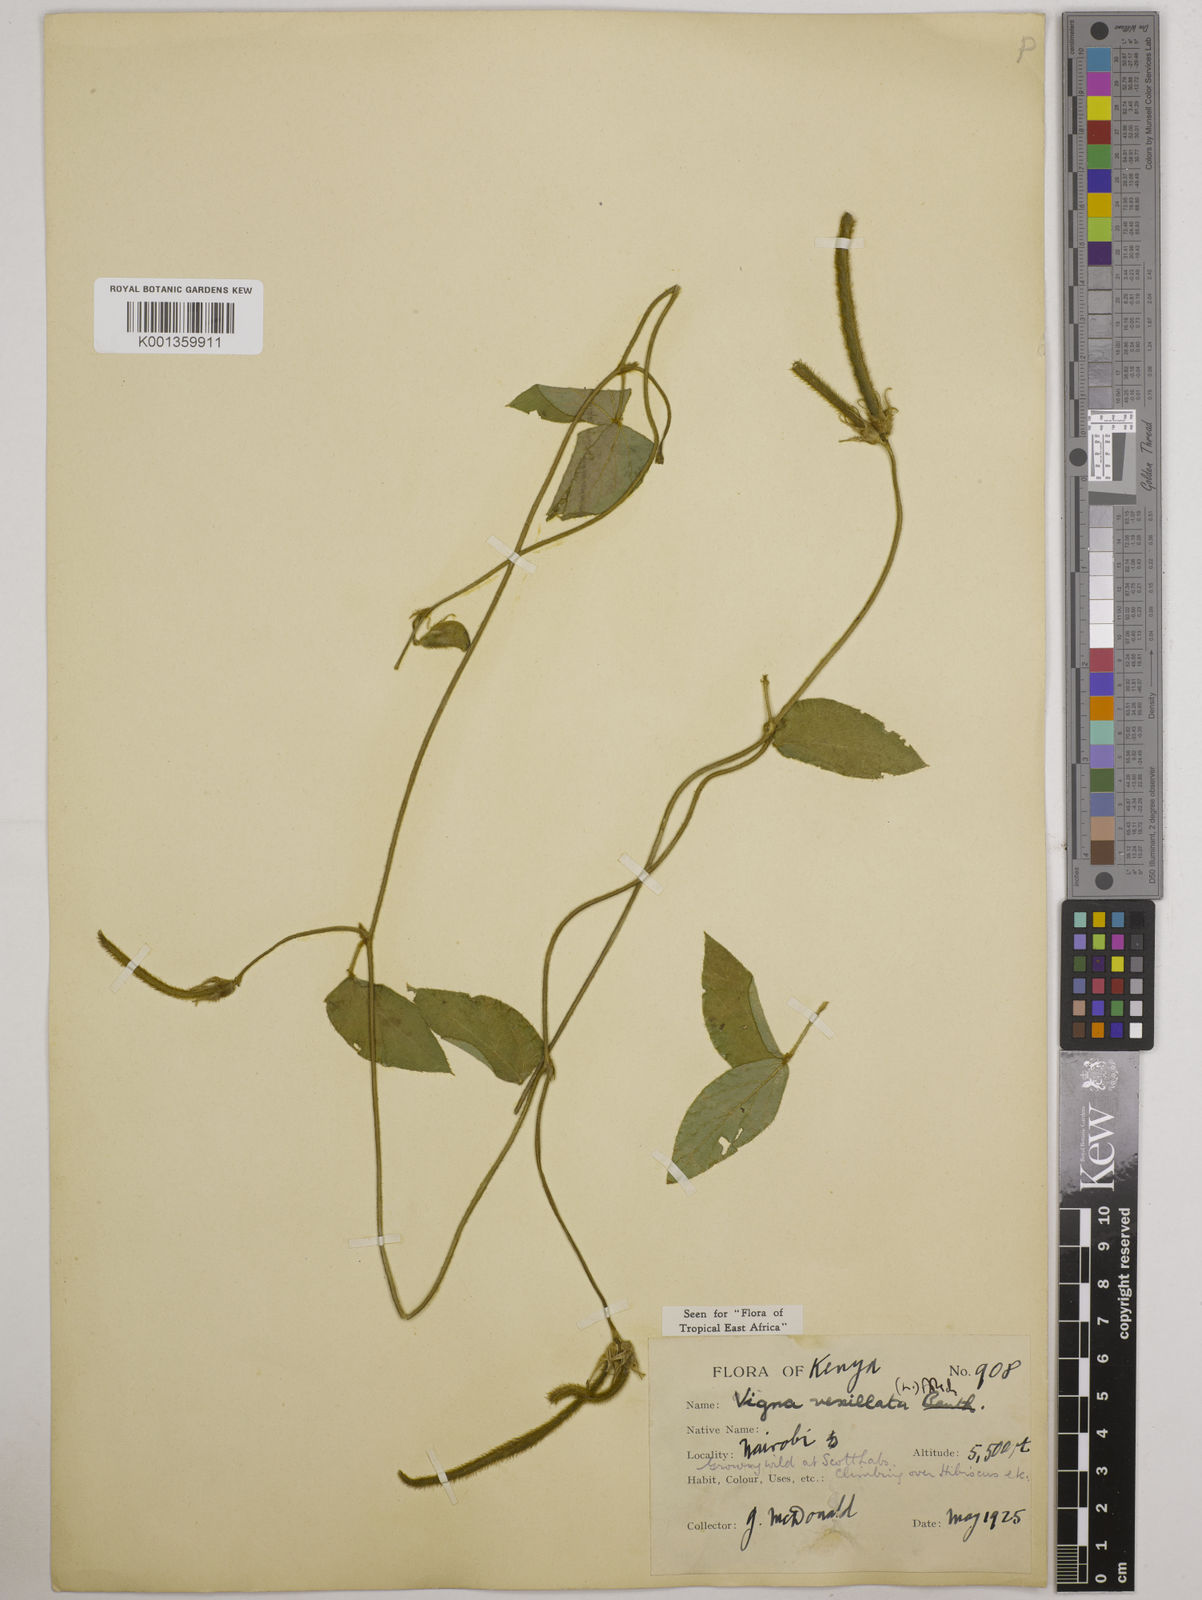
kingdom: Plantae
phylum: Tracheophyta
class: Magnoliopsida
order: Fabales
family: Fabaceae
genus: Vigna
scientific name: Vigna vexillata
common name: Zombi pea
